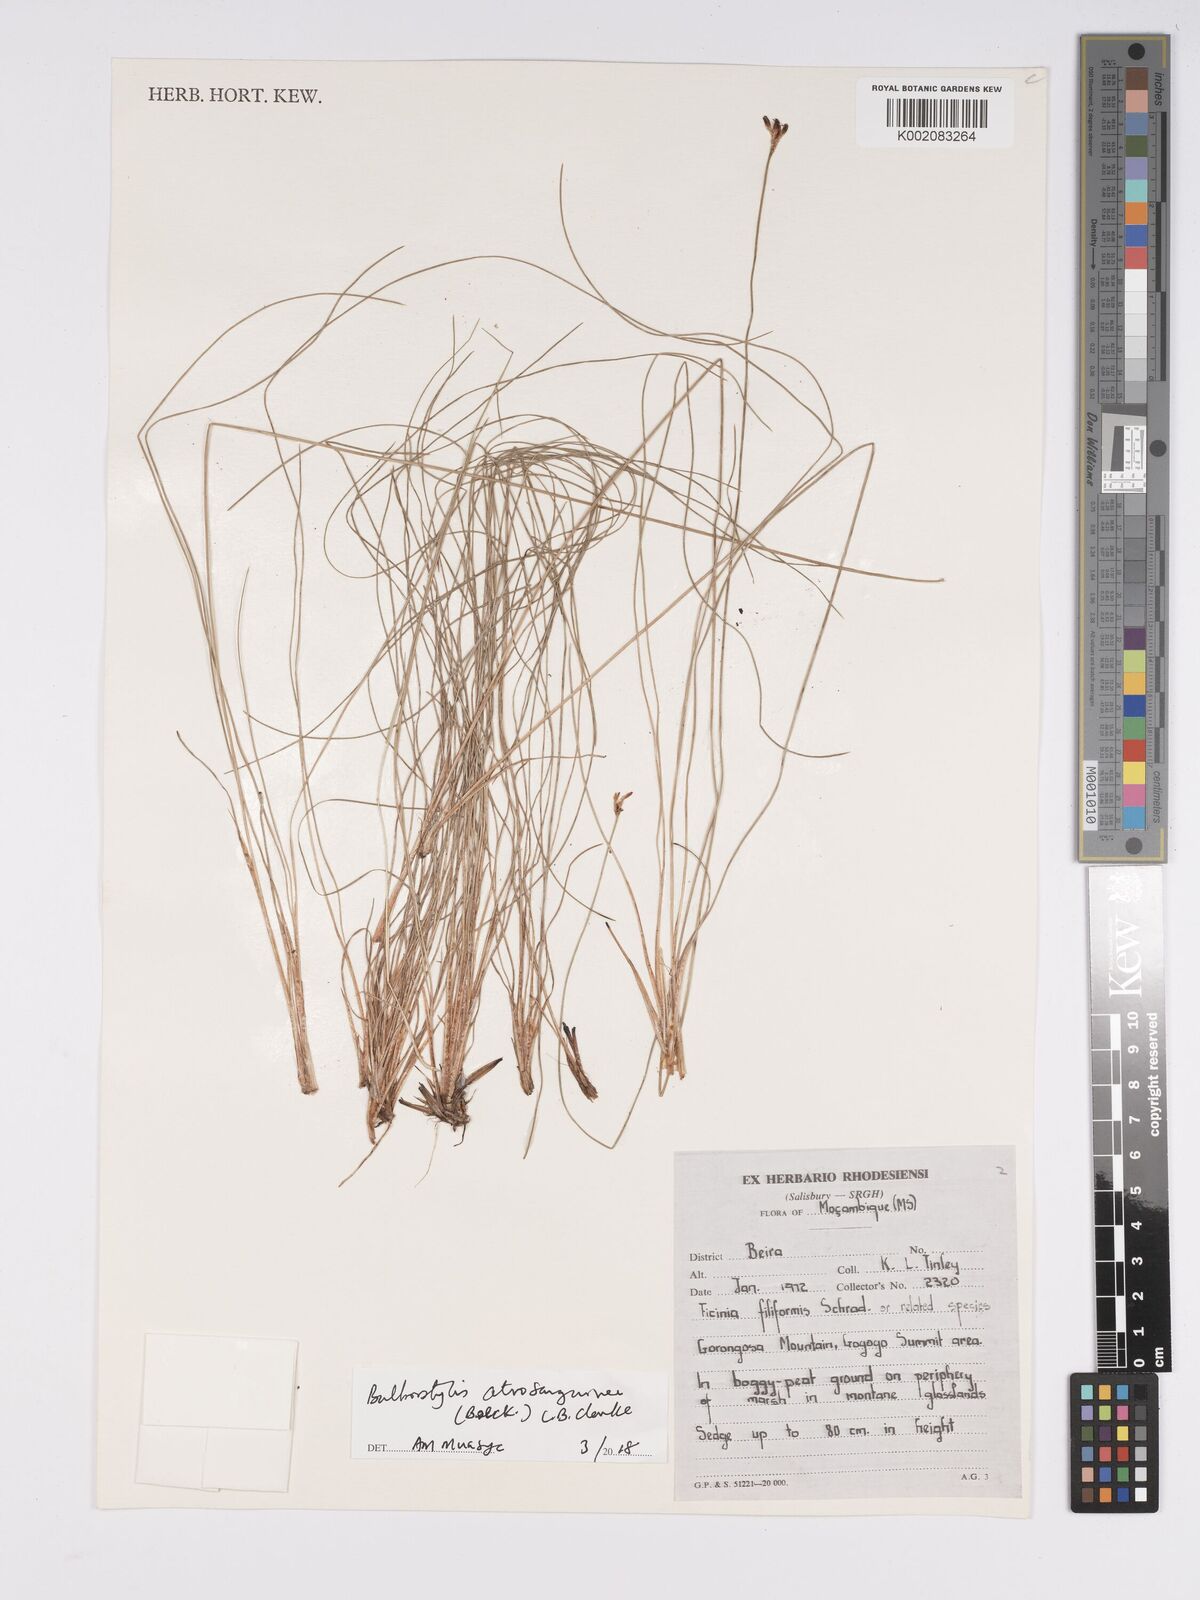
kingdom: Plantae
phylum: Tracheophyta
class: Liliopsida
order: Poales
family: Cyperaceae
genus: Bulbostylis
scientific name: Bulbostylis atrosanguinea
